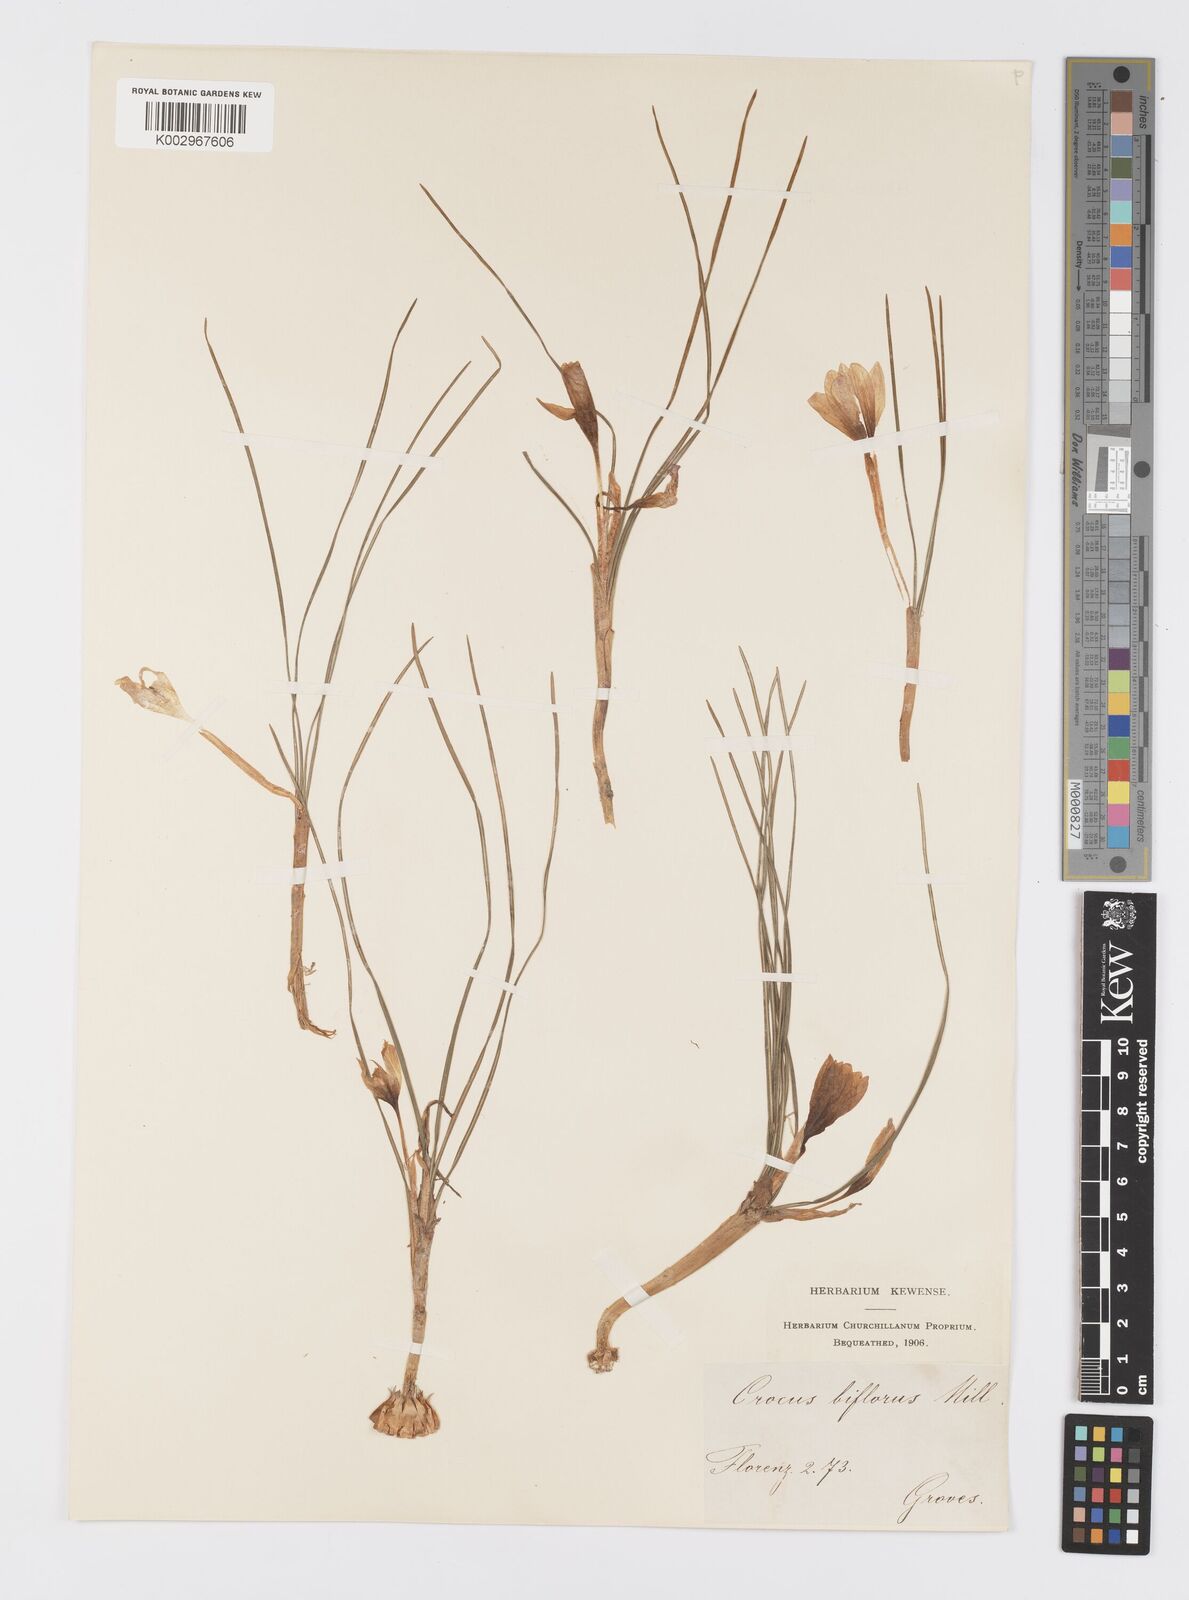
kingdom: Plantae
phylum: Tracheophyta
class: Liliopsida
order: Asparagales
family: Iridaceae
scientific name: Iridaceae
